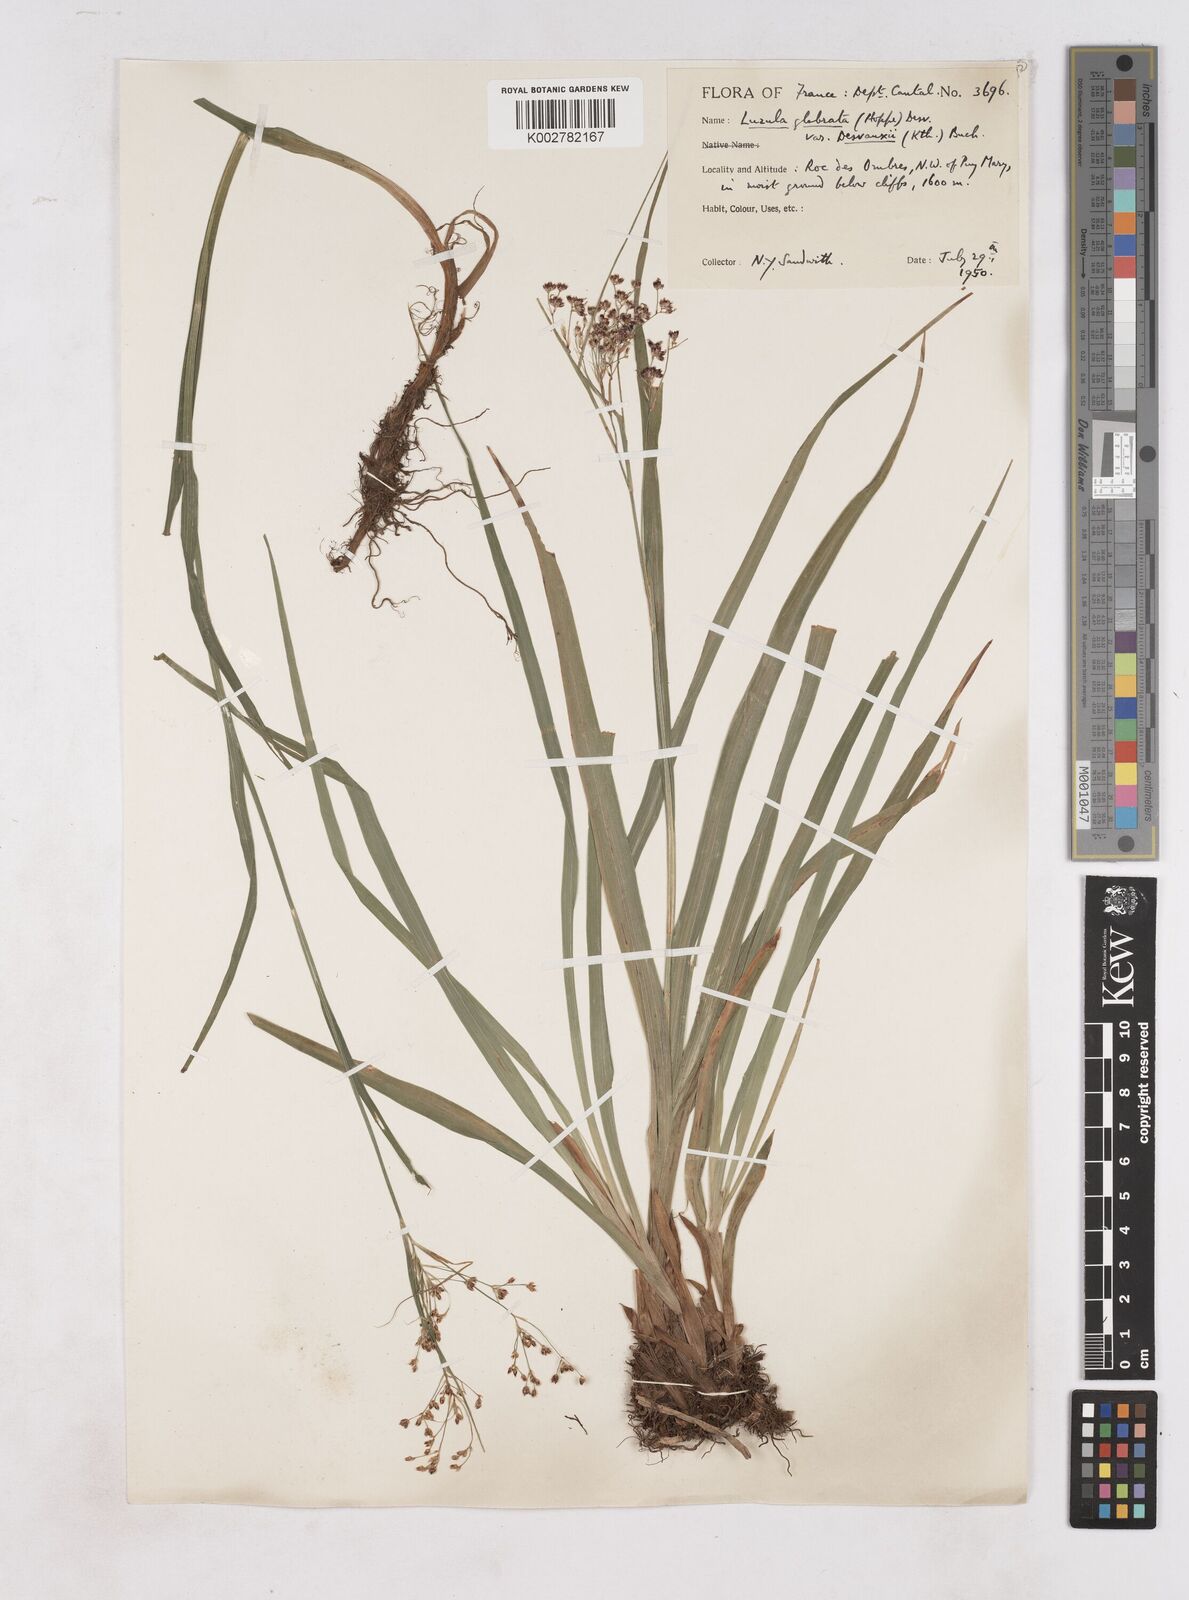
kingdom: Plantae
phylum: Tracheophyta
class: Liliopsida
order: Poales
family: Juncaceae
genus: Luzula
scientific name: Luzula glabrata
